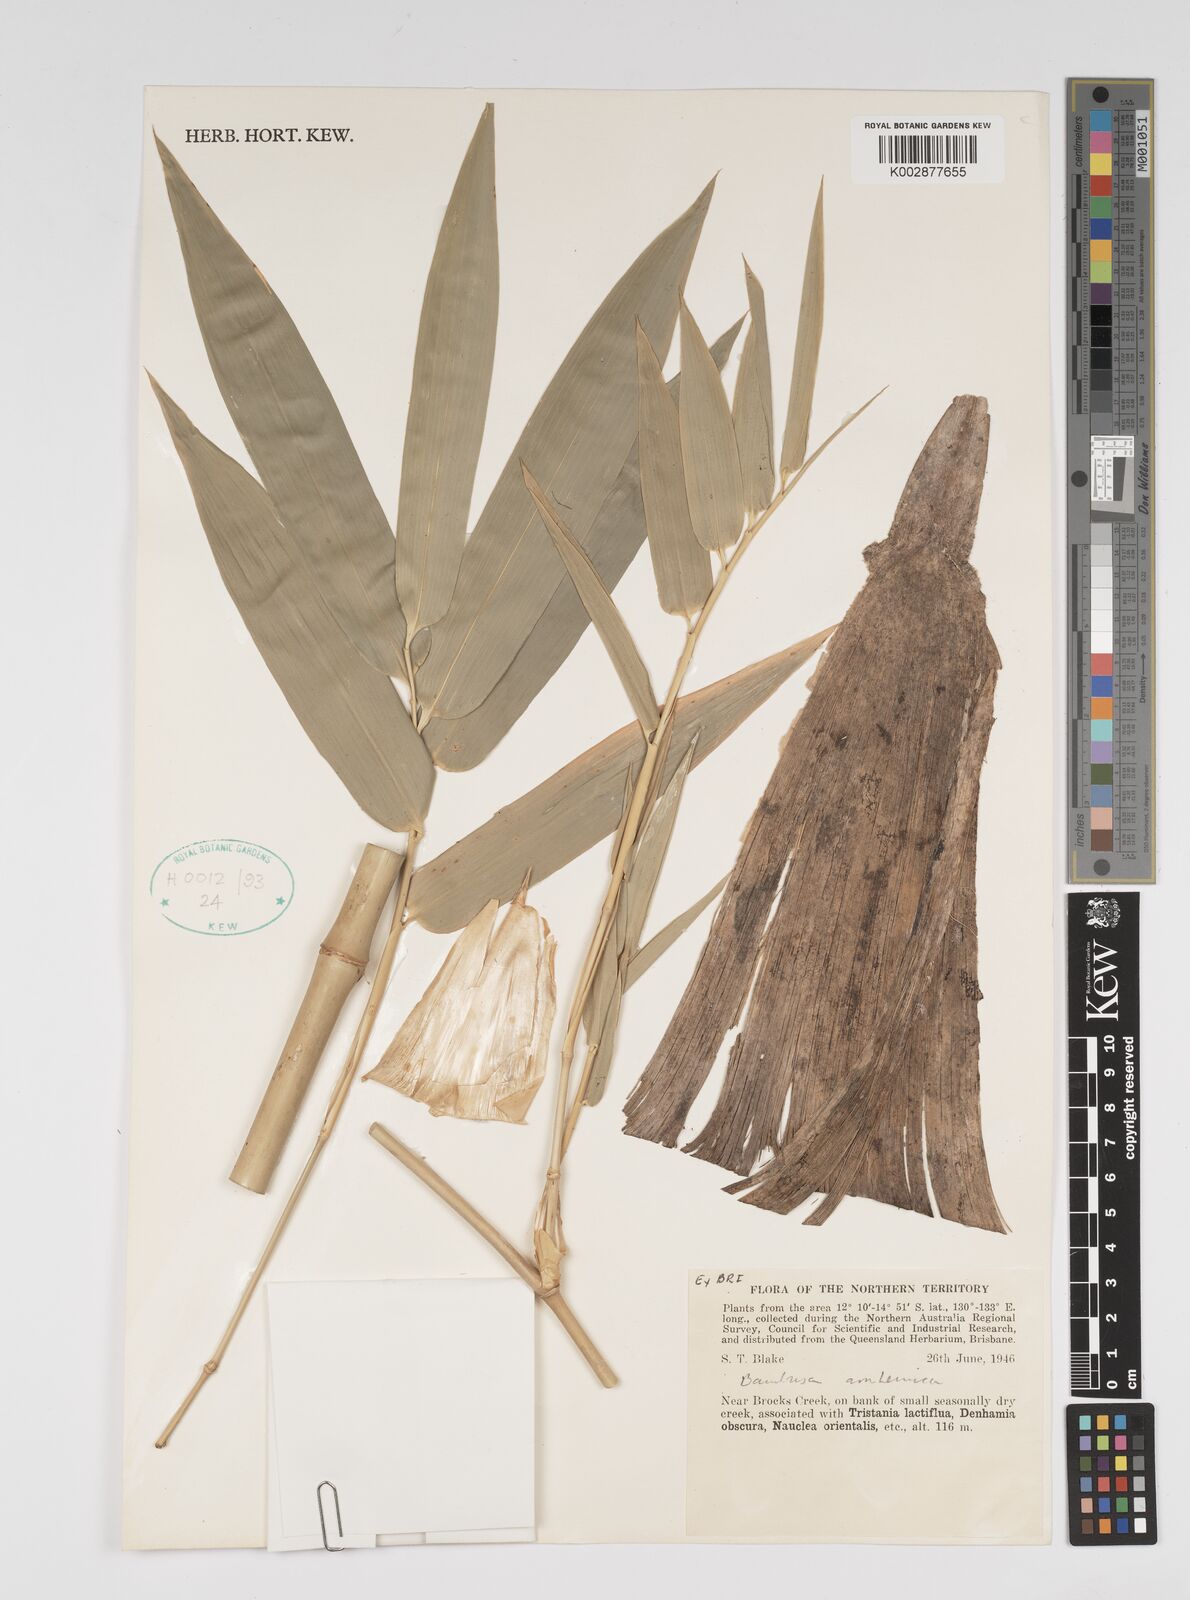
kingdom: Plantae
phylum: Tracheophyta
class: Liliopsida
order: Poales
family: Poaceae
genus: Bambusa
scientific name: Bambusa arnhemica
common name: Top-end bamboo
